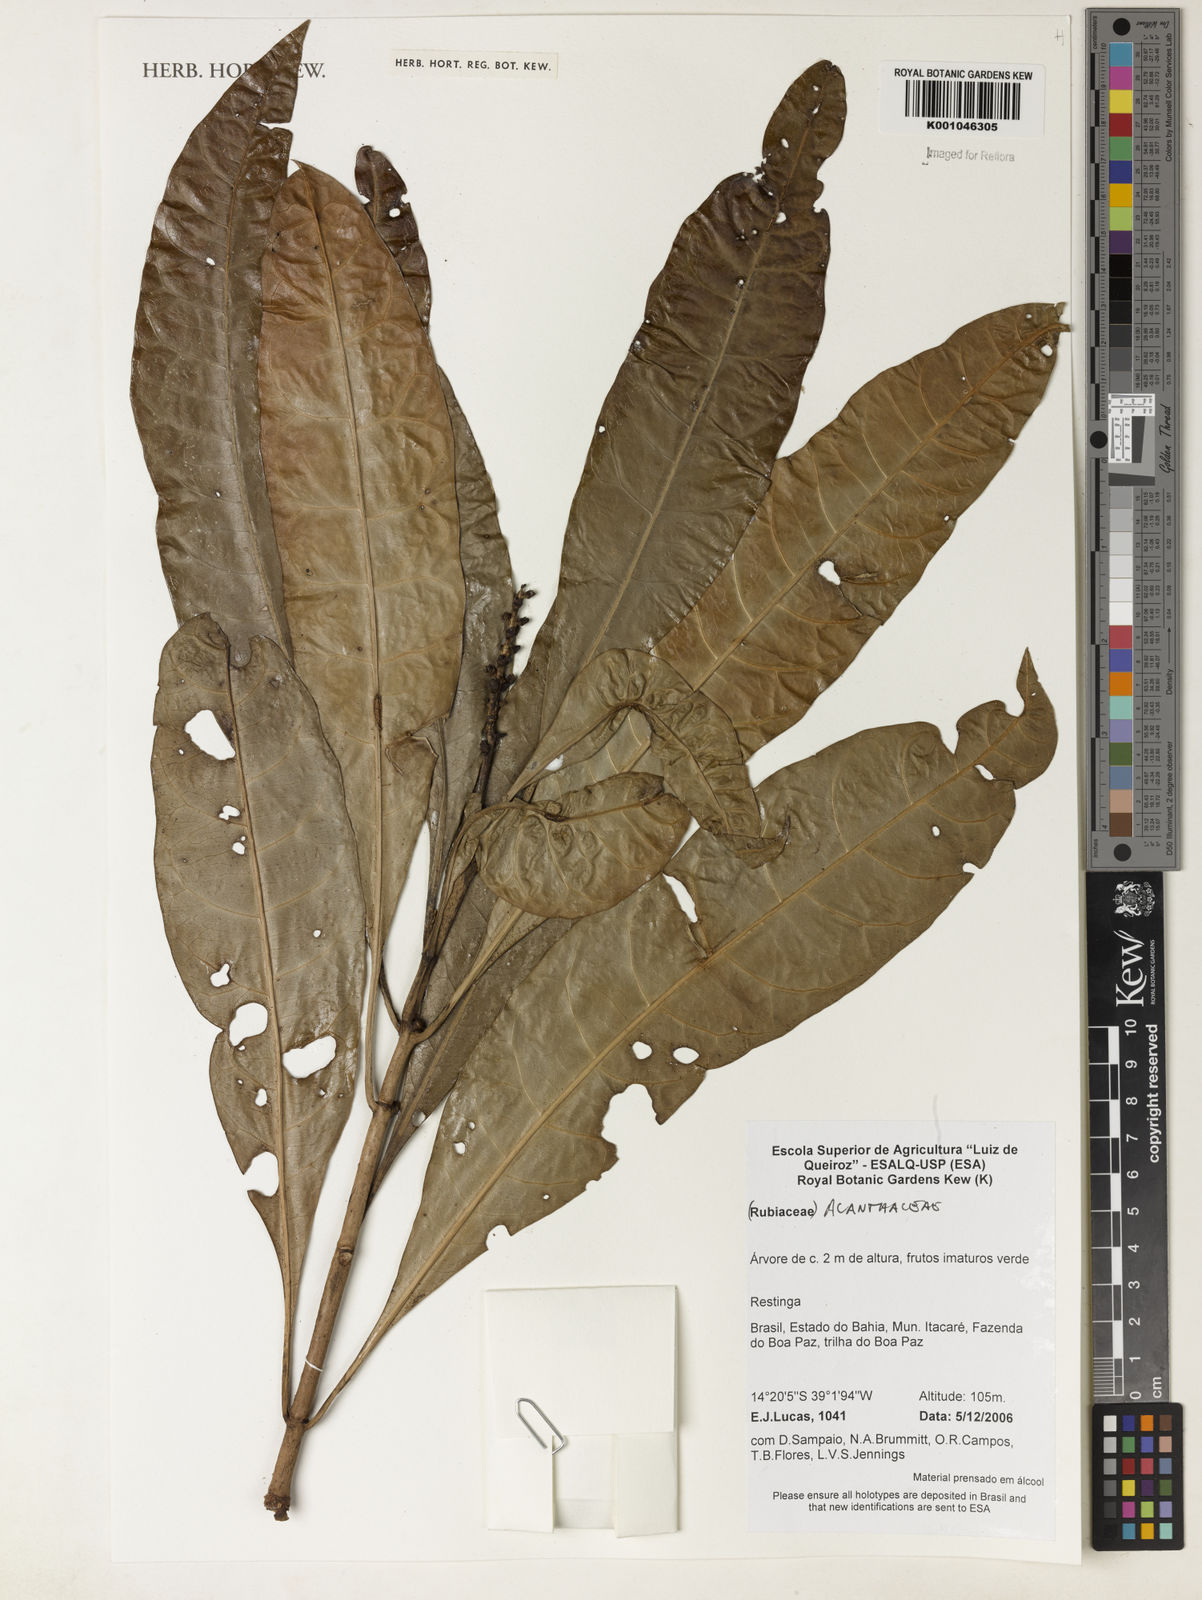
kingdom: Plantae
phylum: Tracheophyta
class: Magnoliopsida
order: Lamiales
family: Acanthaceae
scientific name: Acanthaceae
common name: Acanthaceae
